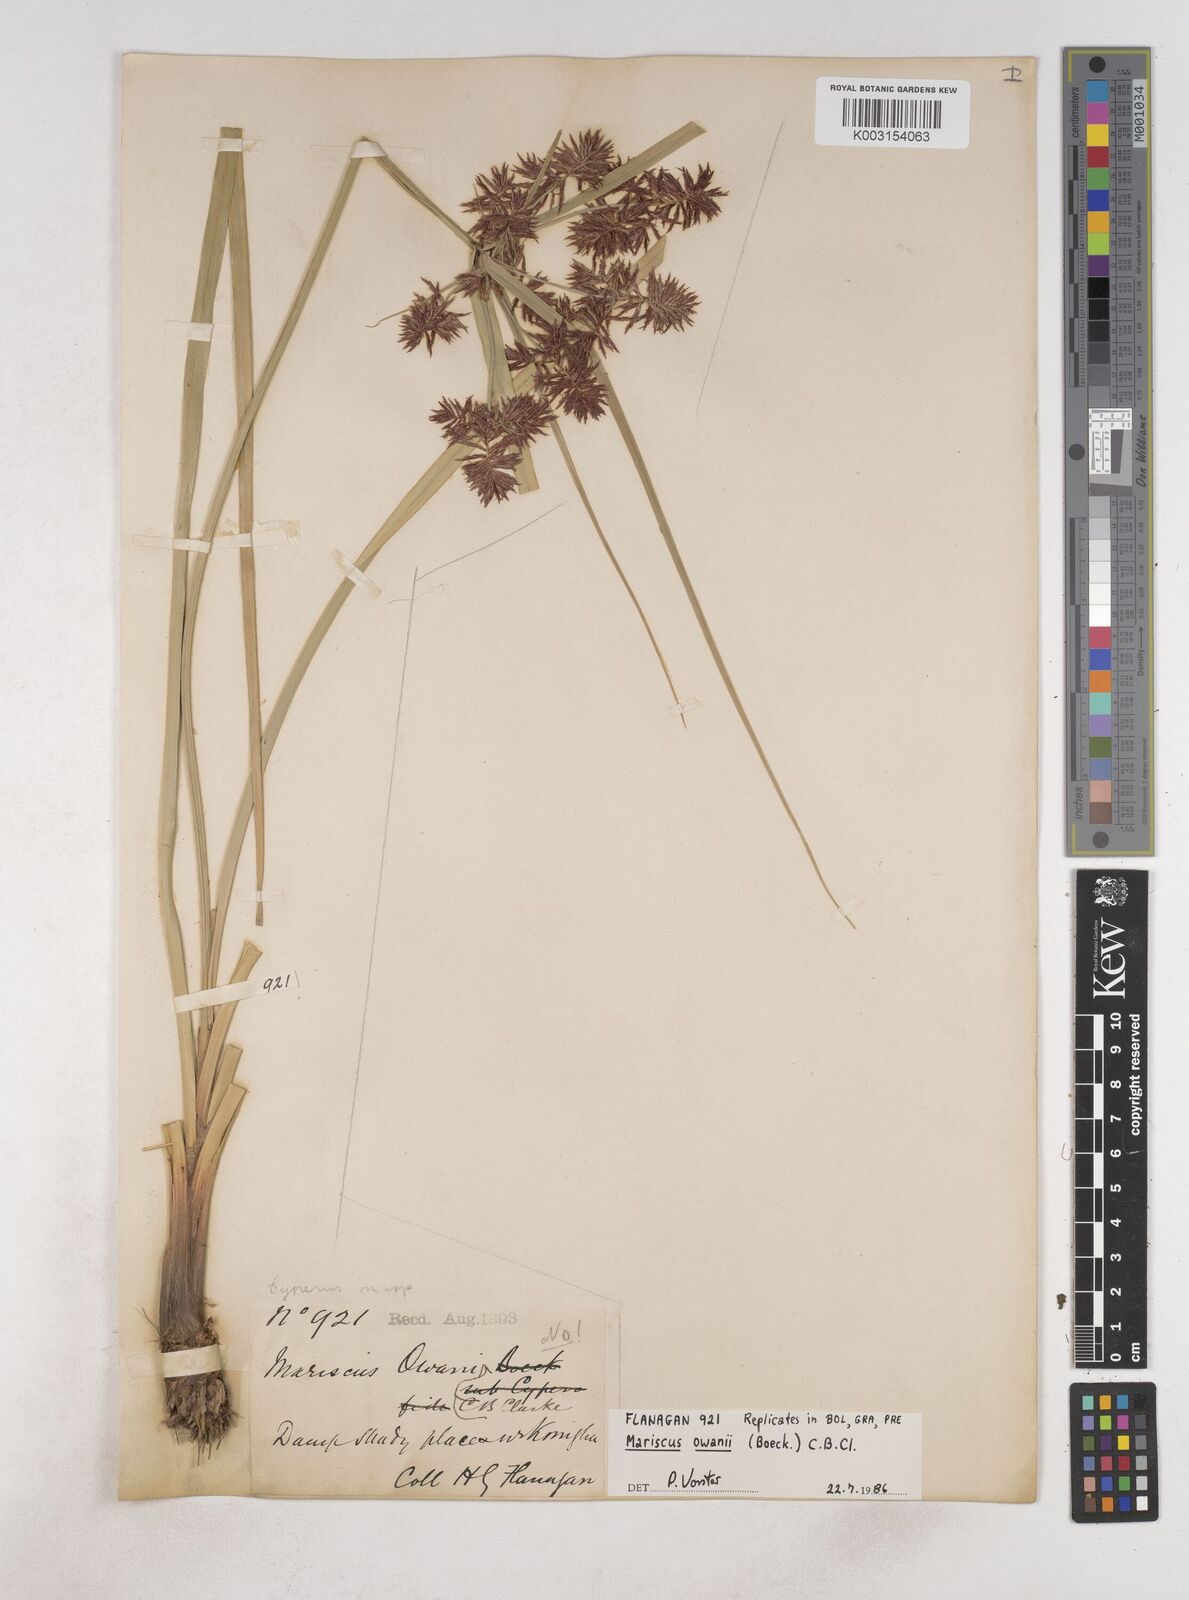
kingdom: Plantae
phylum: Tracheophyta
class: Liliopsida
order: Poales
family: Cyperaceae
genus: Cyperus
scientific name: Cyperus owanii
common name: Owan's flatsedge
